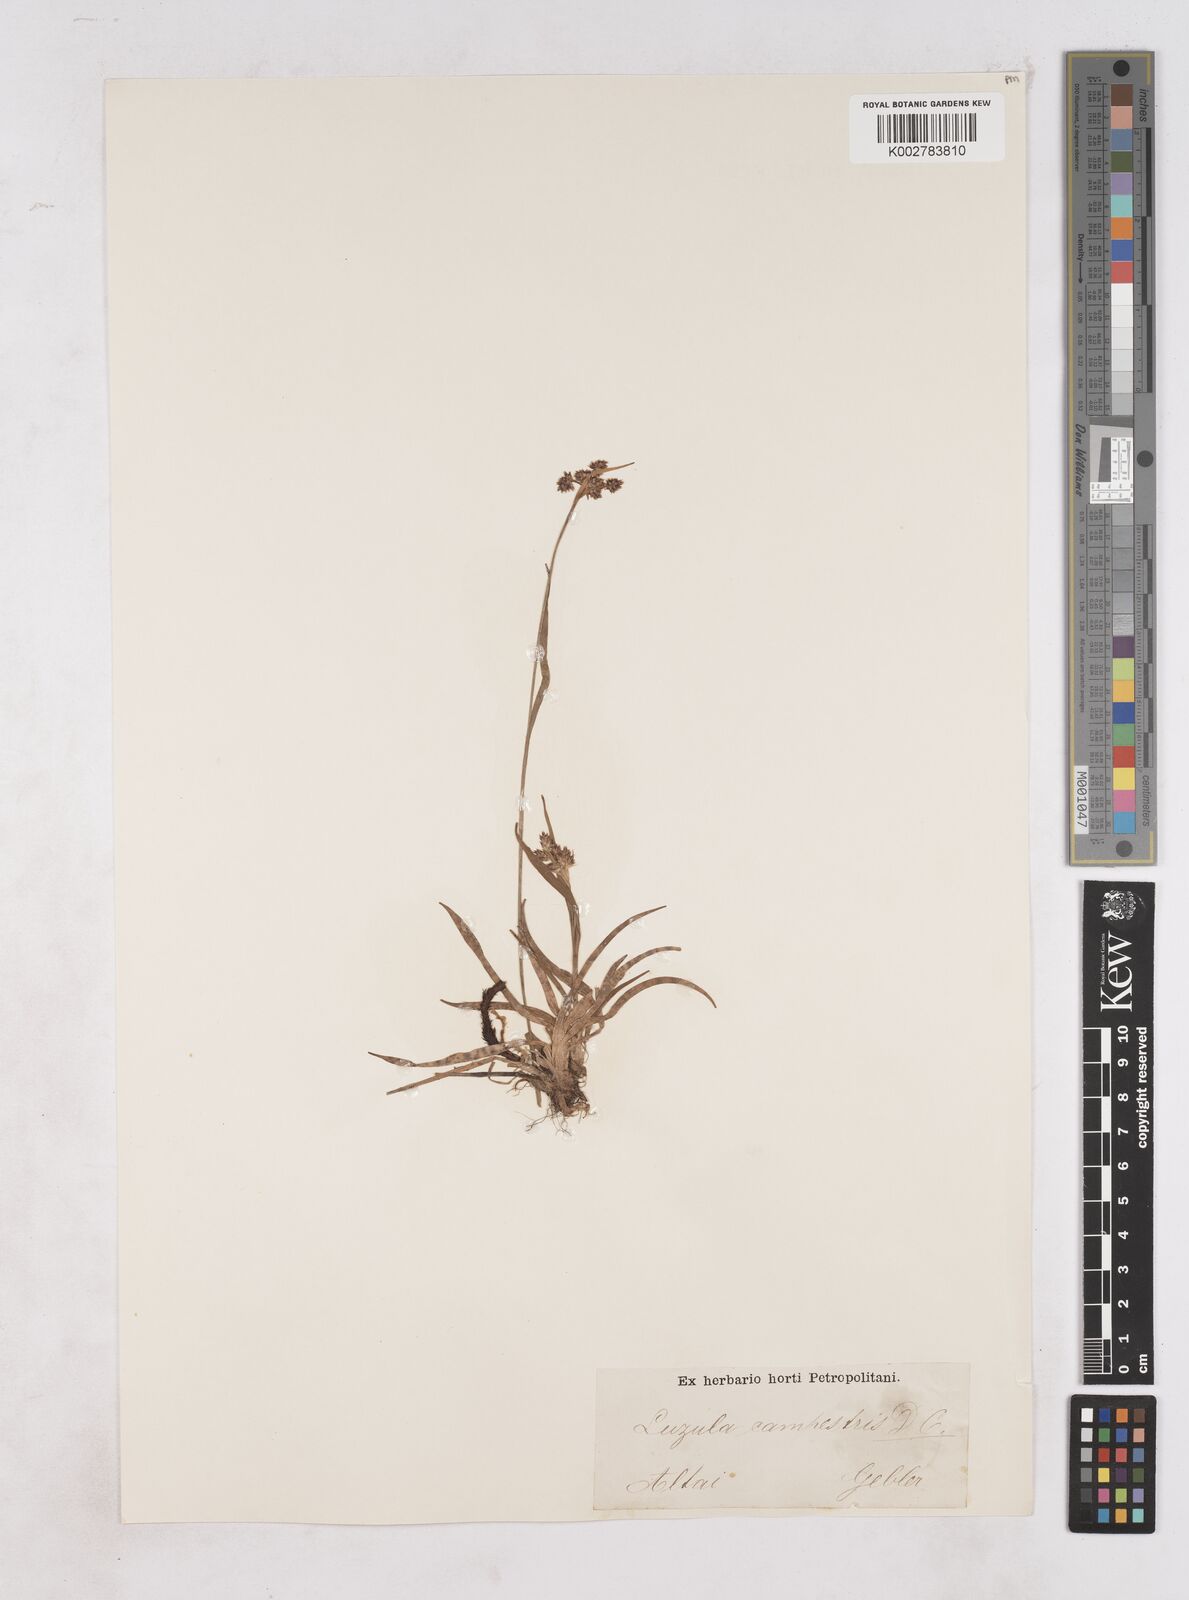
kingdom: Plantae
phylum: Tracheophyta
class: Liliopsida
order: Poales
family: Juncaceae
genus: Luzula
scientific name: Luzula campestris
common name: Field wood-rush
